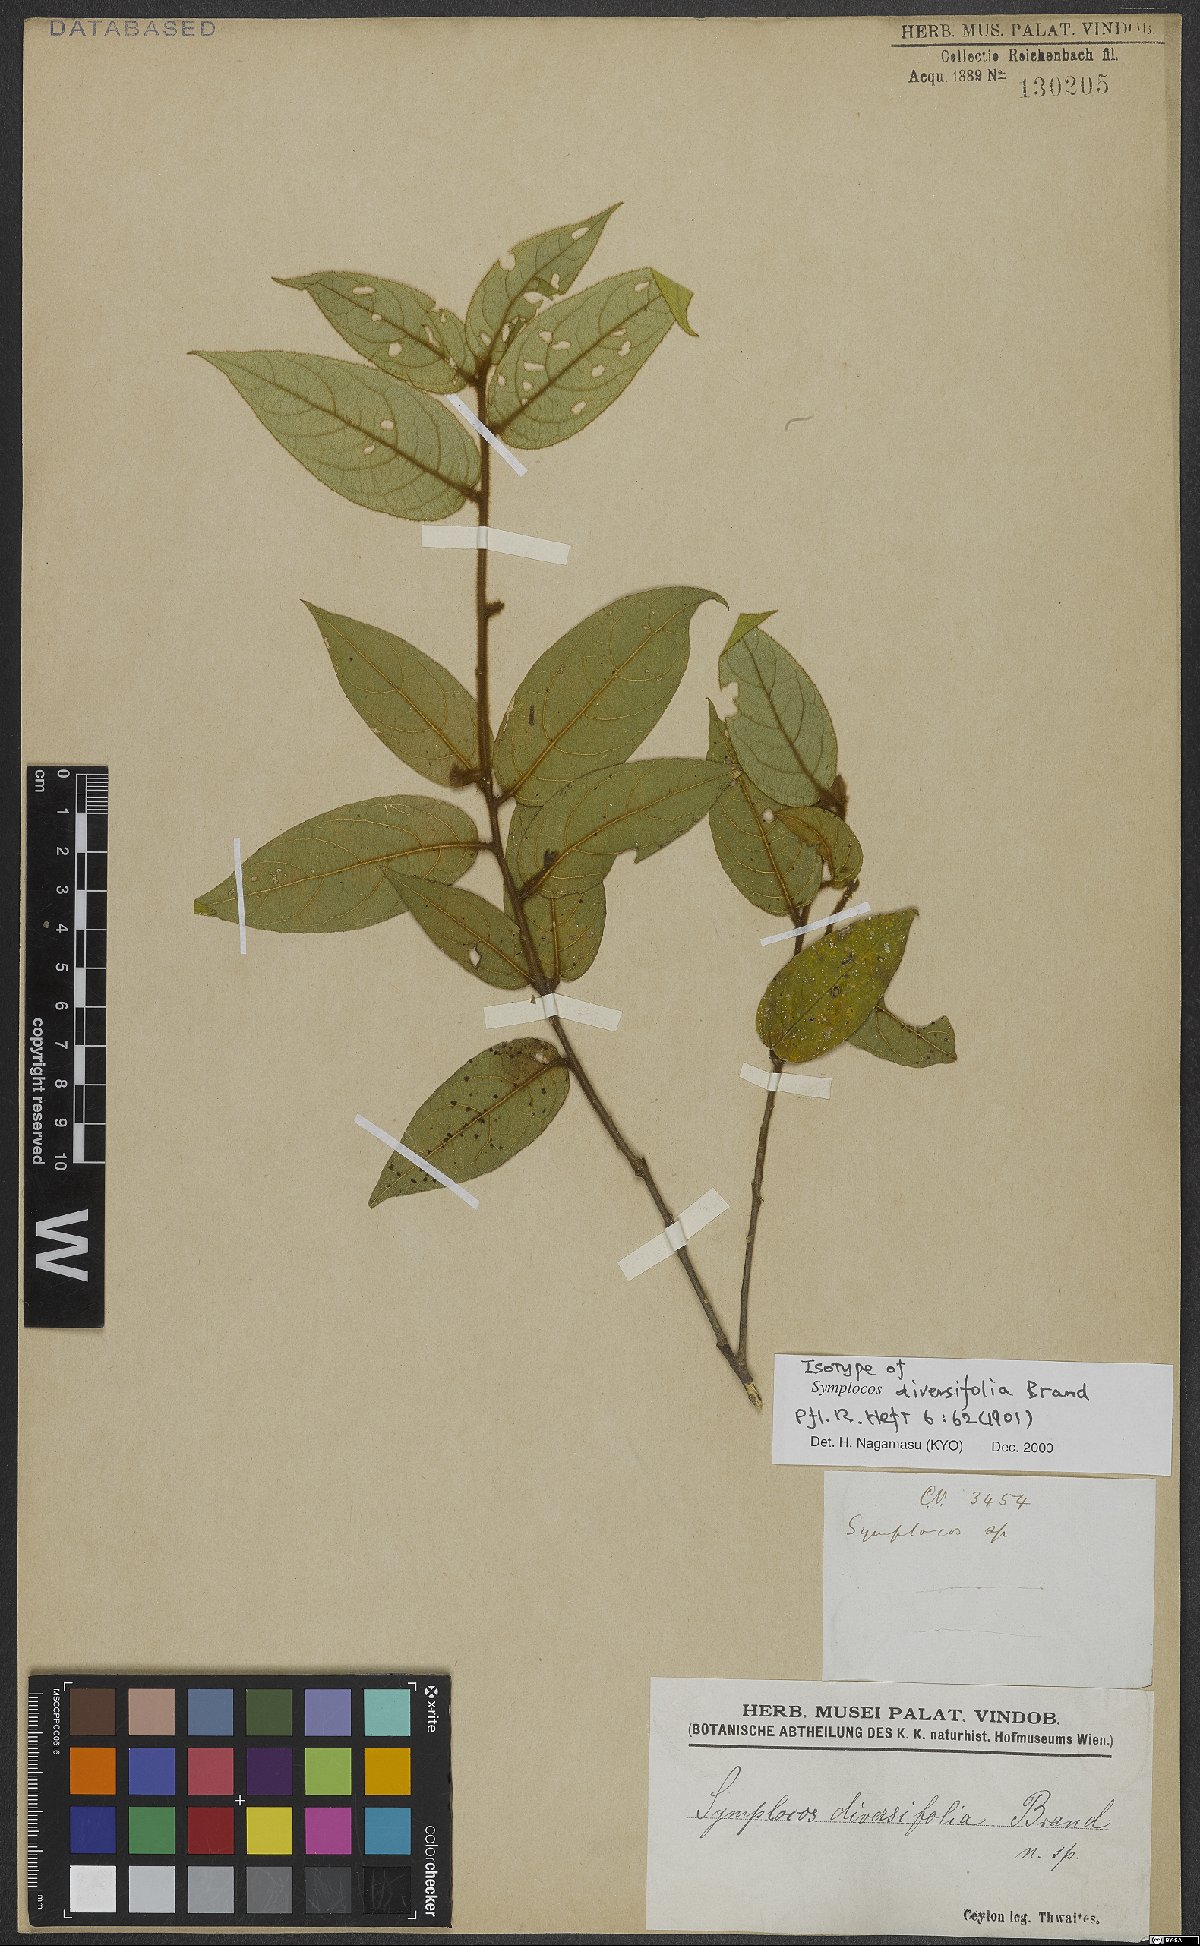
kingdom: Plantae
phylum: Tracheophyta
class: Magnoliopsida
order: Ericales
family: Symplocaceae
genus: Symplocos
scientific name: Symplocos diversifolia
